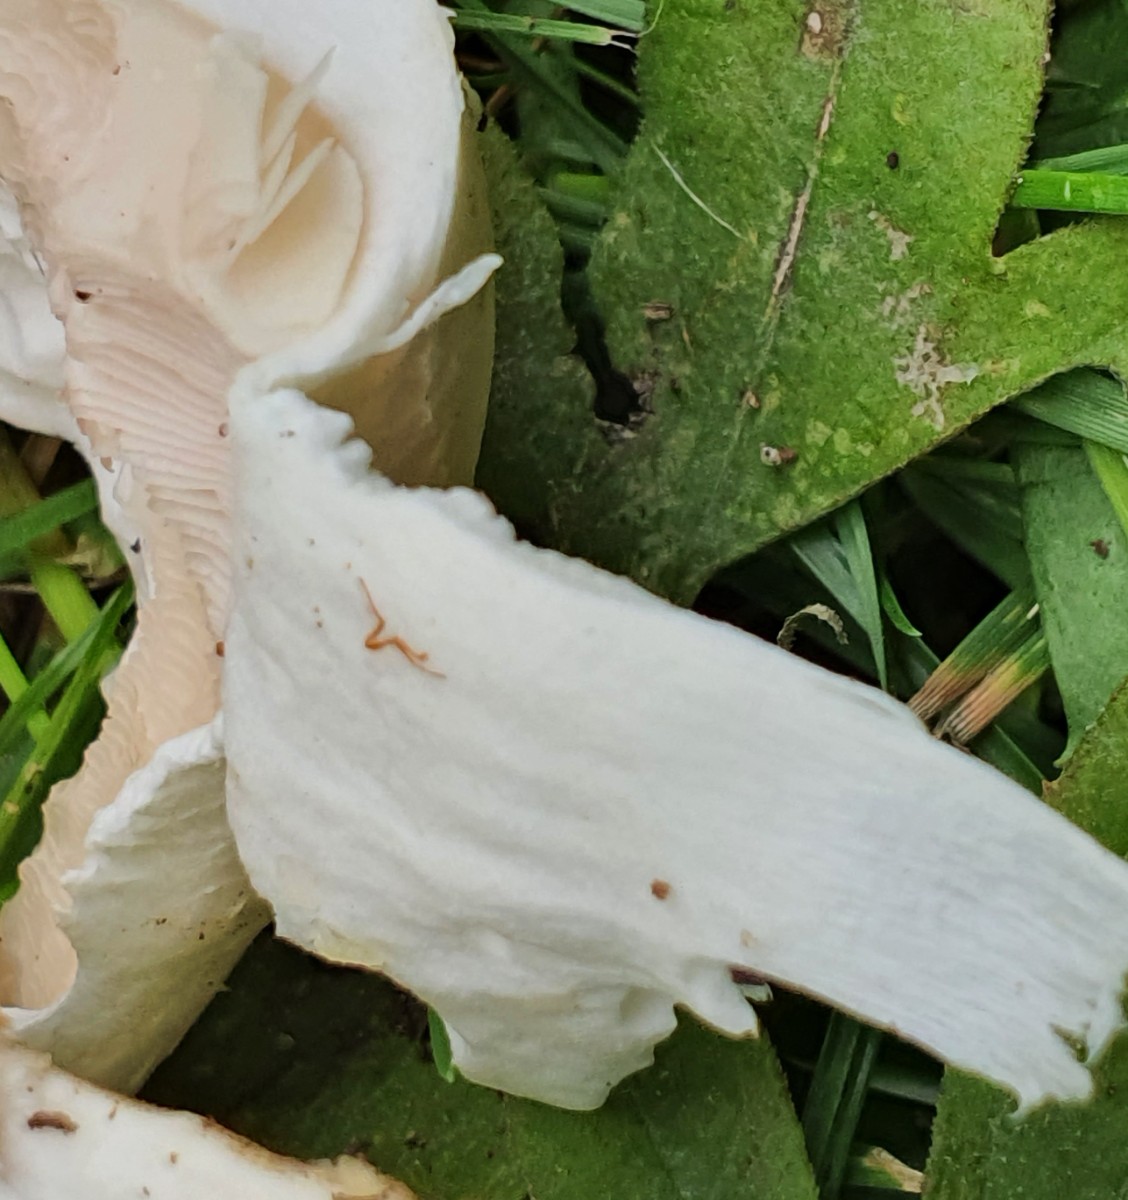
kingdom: Fungi
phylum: Basidiomycota
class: Agaricomycetes
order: Agaricales
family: Agaricaceae
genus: Agaricus
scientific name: Agaricus arvensis
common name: ager-champignon
